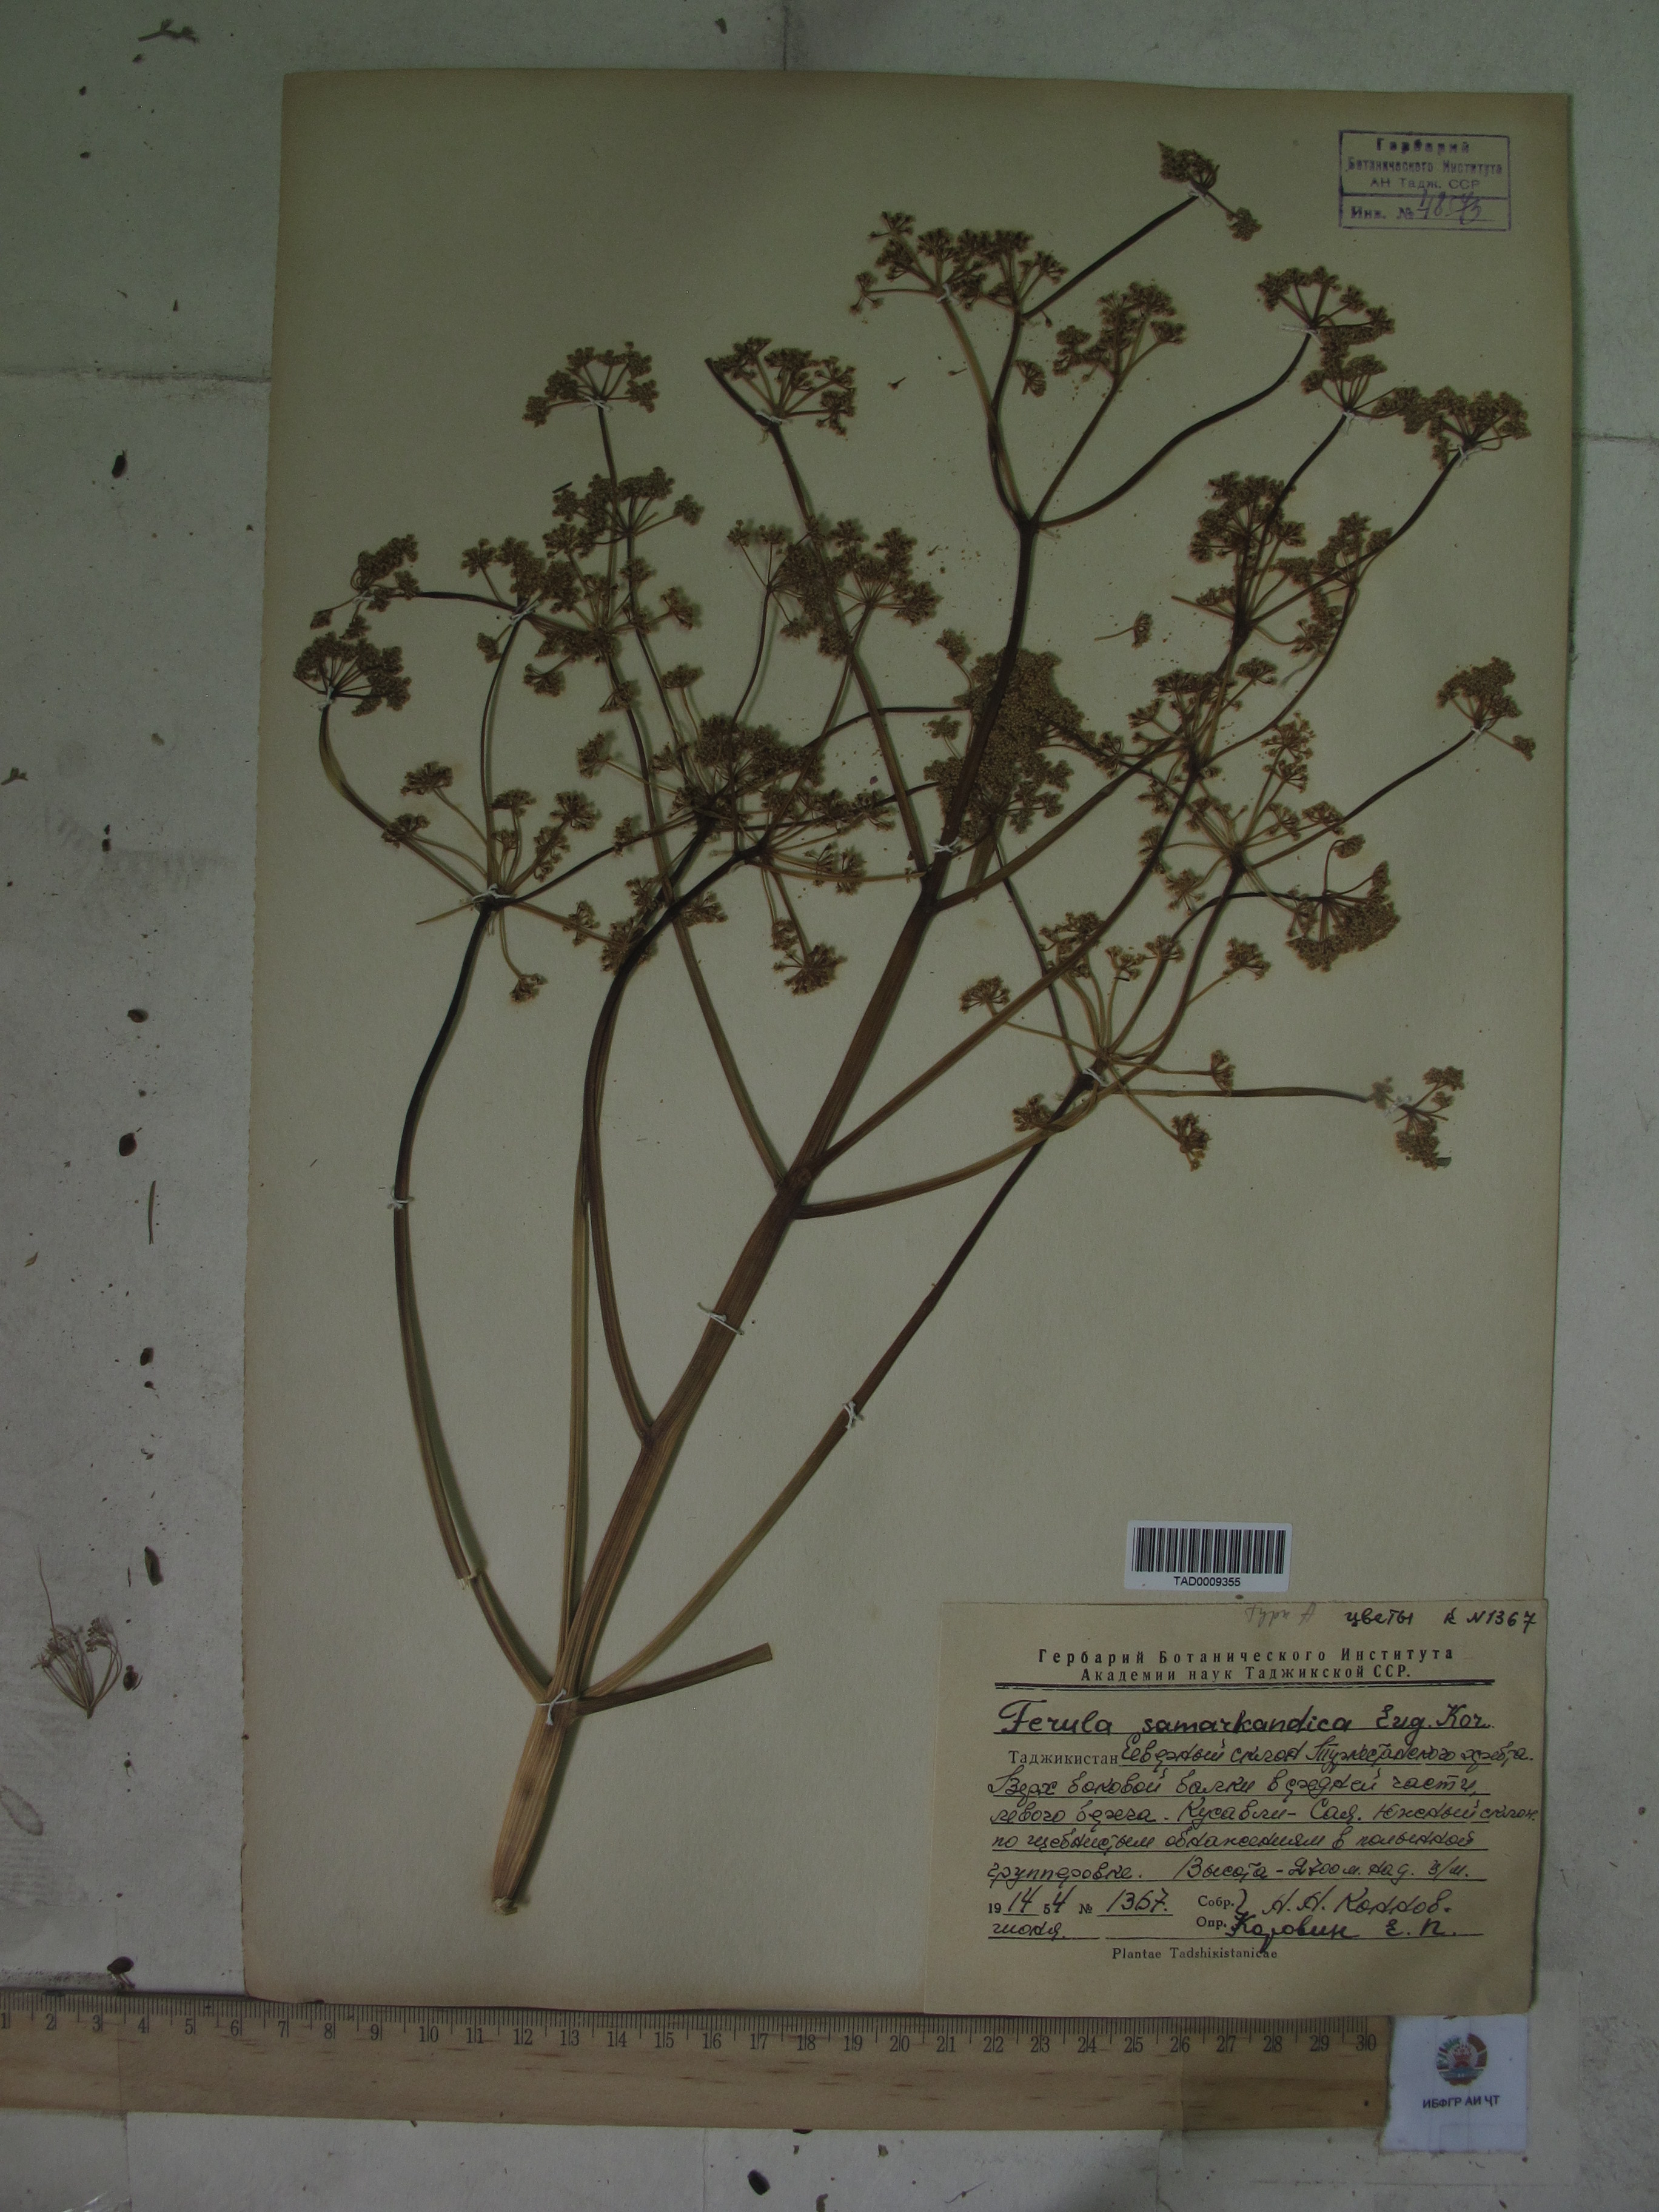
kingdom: Plantae
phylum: Tracheophyta
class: Magnoliopsida
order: Apiales
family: Apiaceae
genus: Ferula
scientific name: Ferula samarkandica
